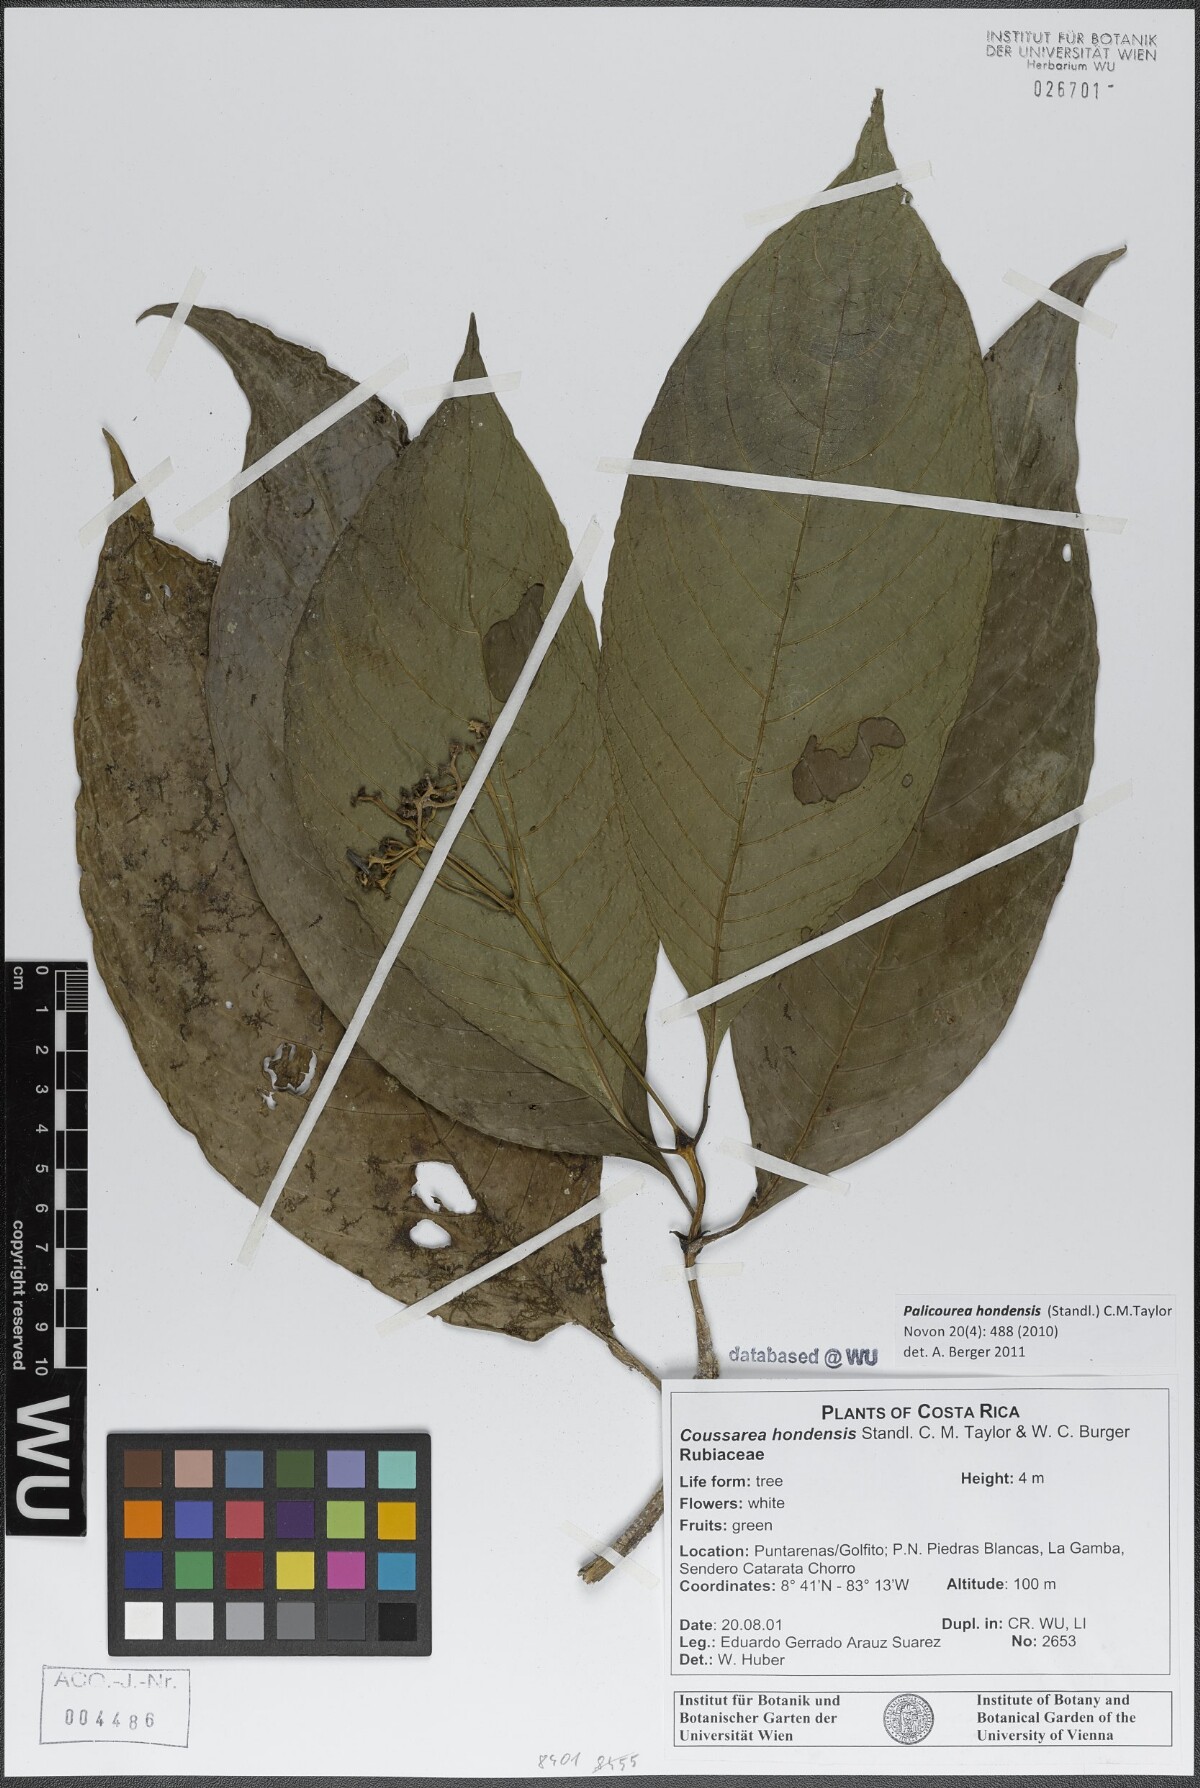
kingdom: Plantae
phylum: Tracheophyta
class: Magnoliopsida
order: Gentianales
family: Rubiaceae
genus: Palicourea
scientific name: Palicourea hondensis
